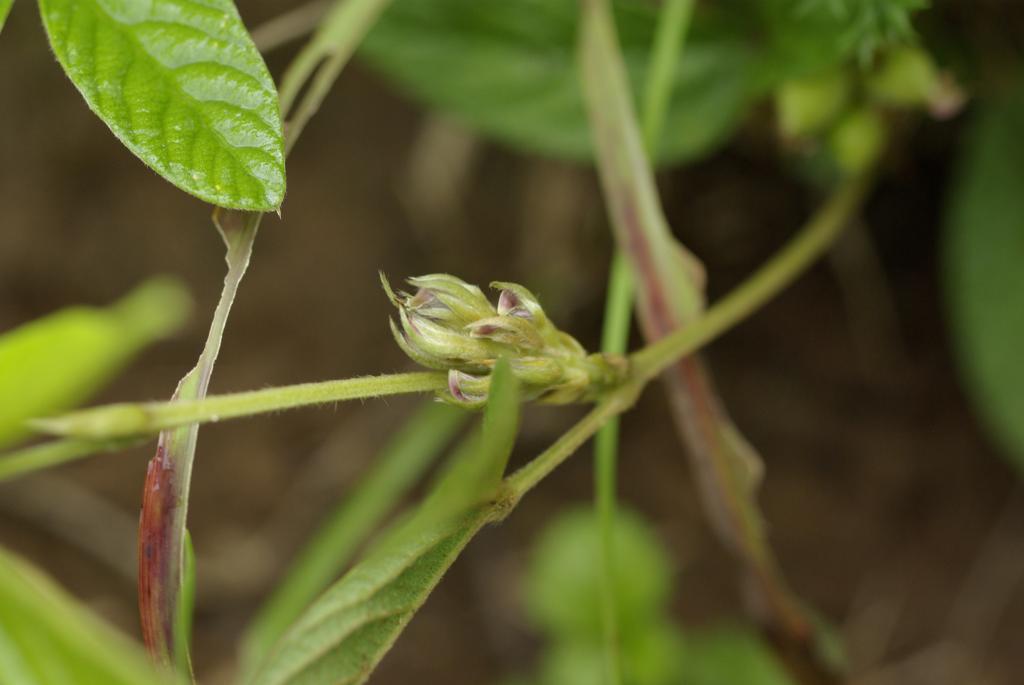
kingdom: Plantae
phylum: Tracheophyta
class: Magnoliopsida
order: Fabales
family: Fabaceae
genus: Flemingia
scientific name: Flemingia macrophylla
